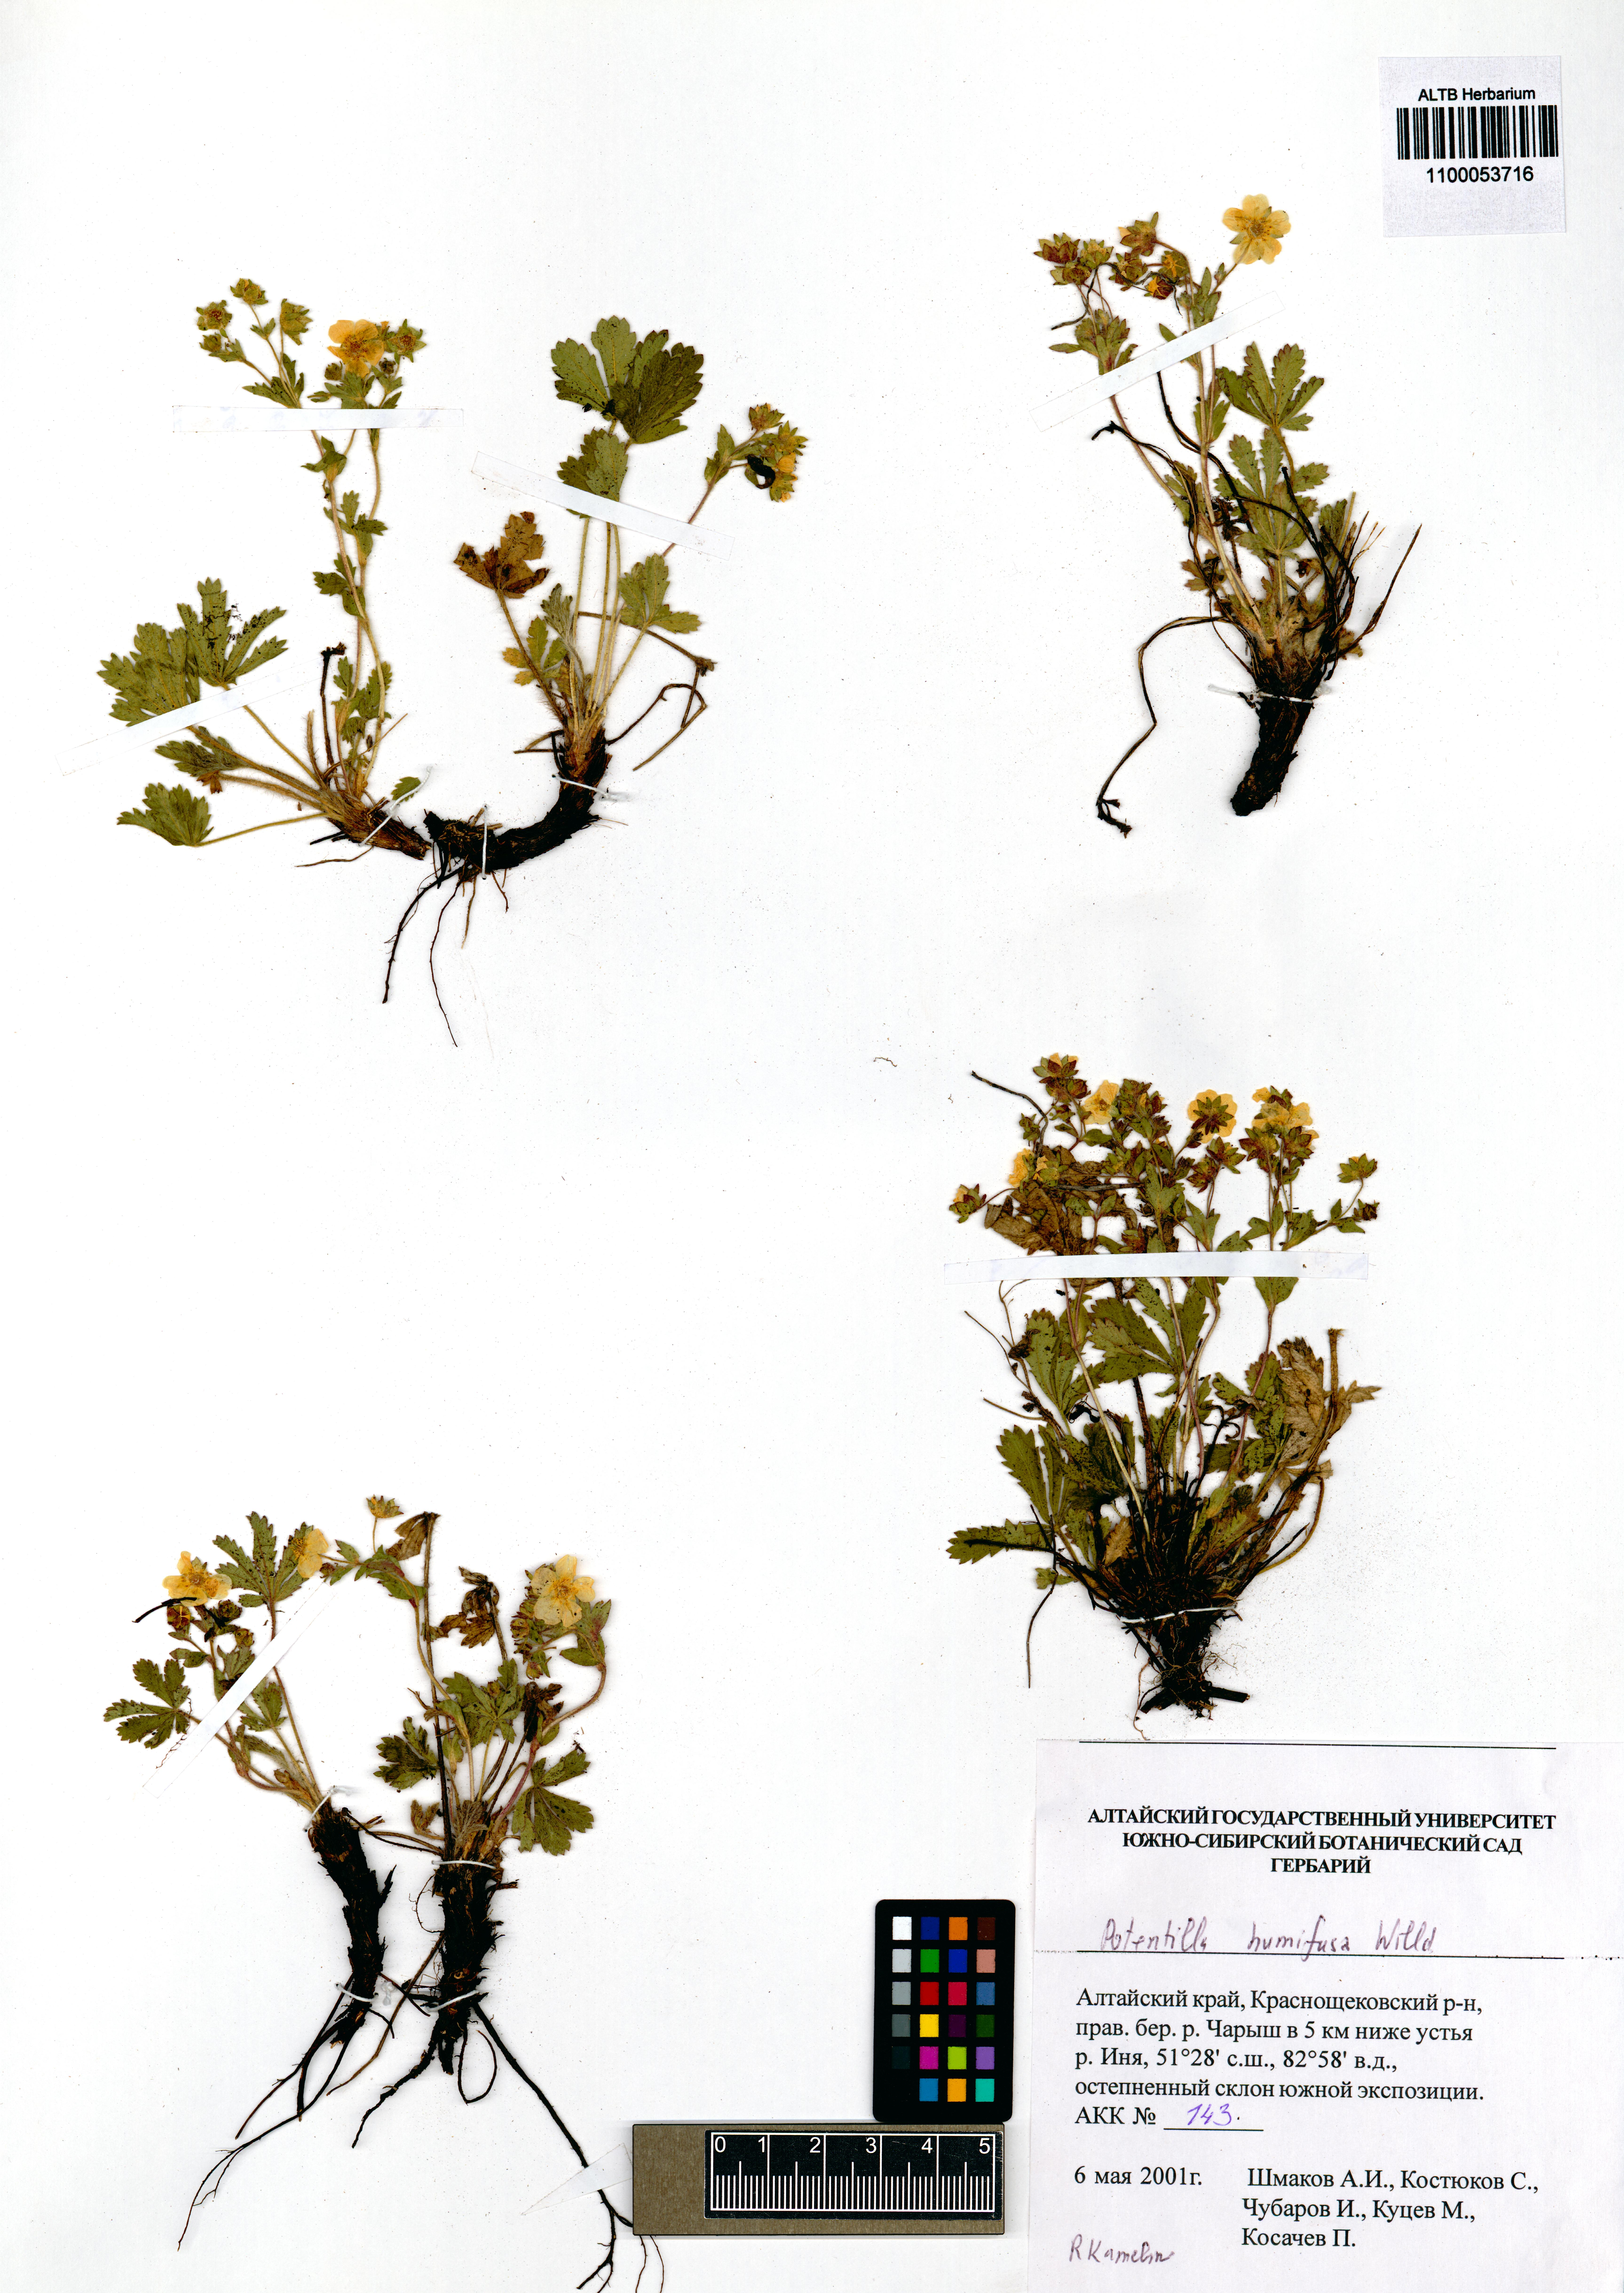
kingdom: Plantae
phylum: Tracheophyta
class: Magnoliopsida
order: Rosales
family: Rosaceae
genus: Potentilla
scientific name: Potentilla humifusa
